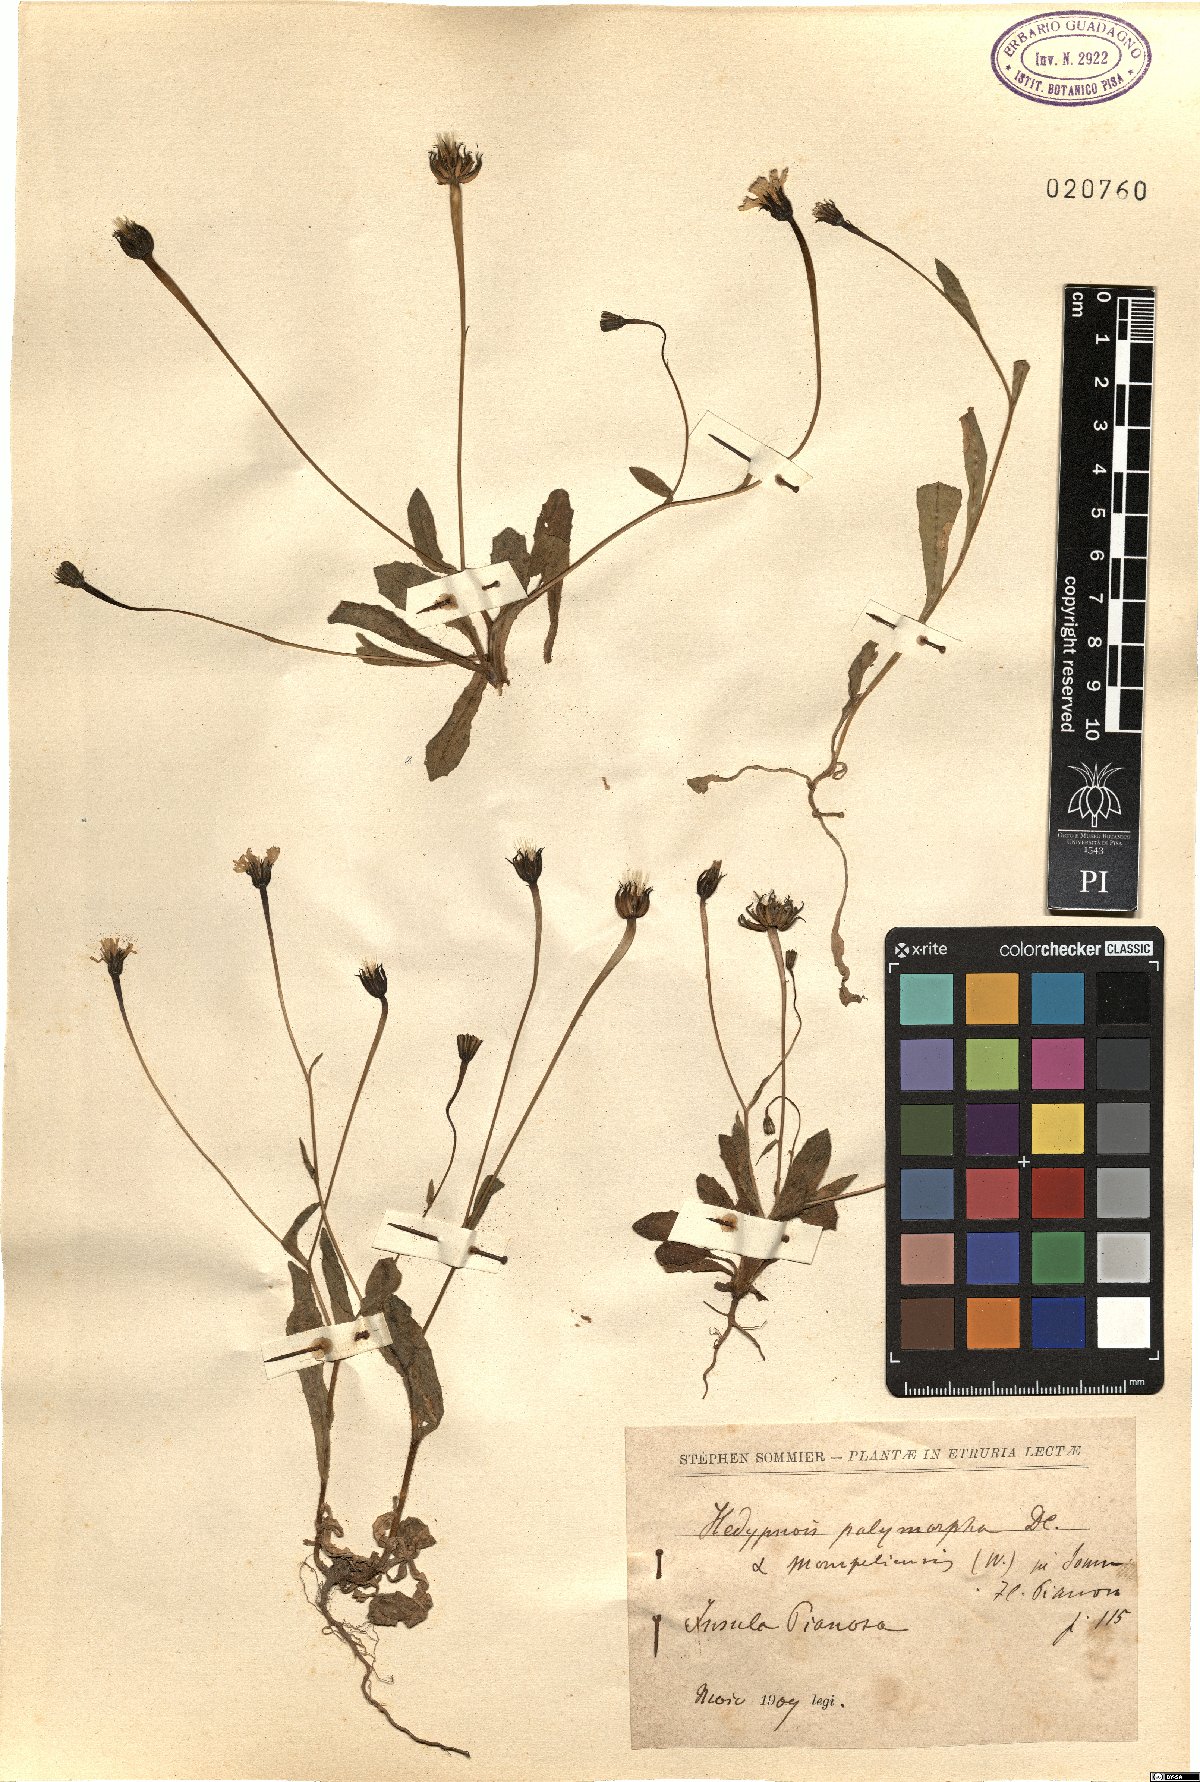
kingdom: Plantae
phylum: Tracheophyta
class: Magnoliopsida
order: Asterales
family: Asteraceae
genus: Hedypnois
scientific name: Hedypnois rhagadioloides
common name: Cretan weed
